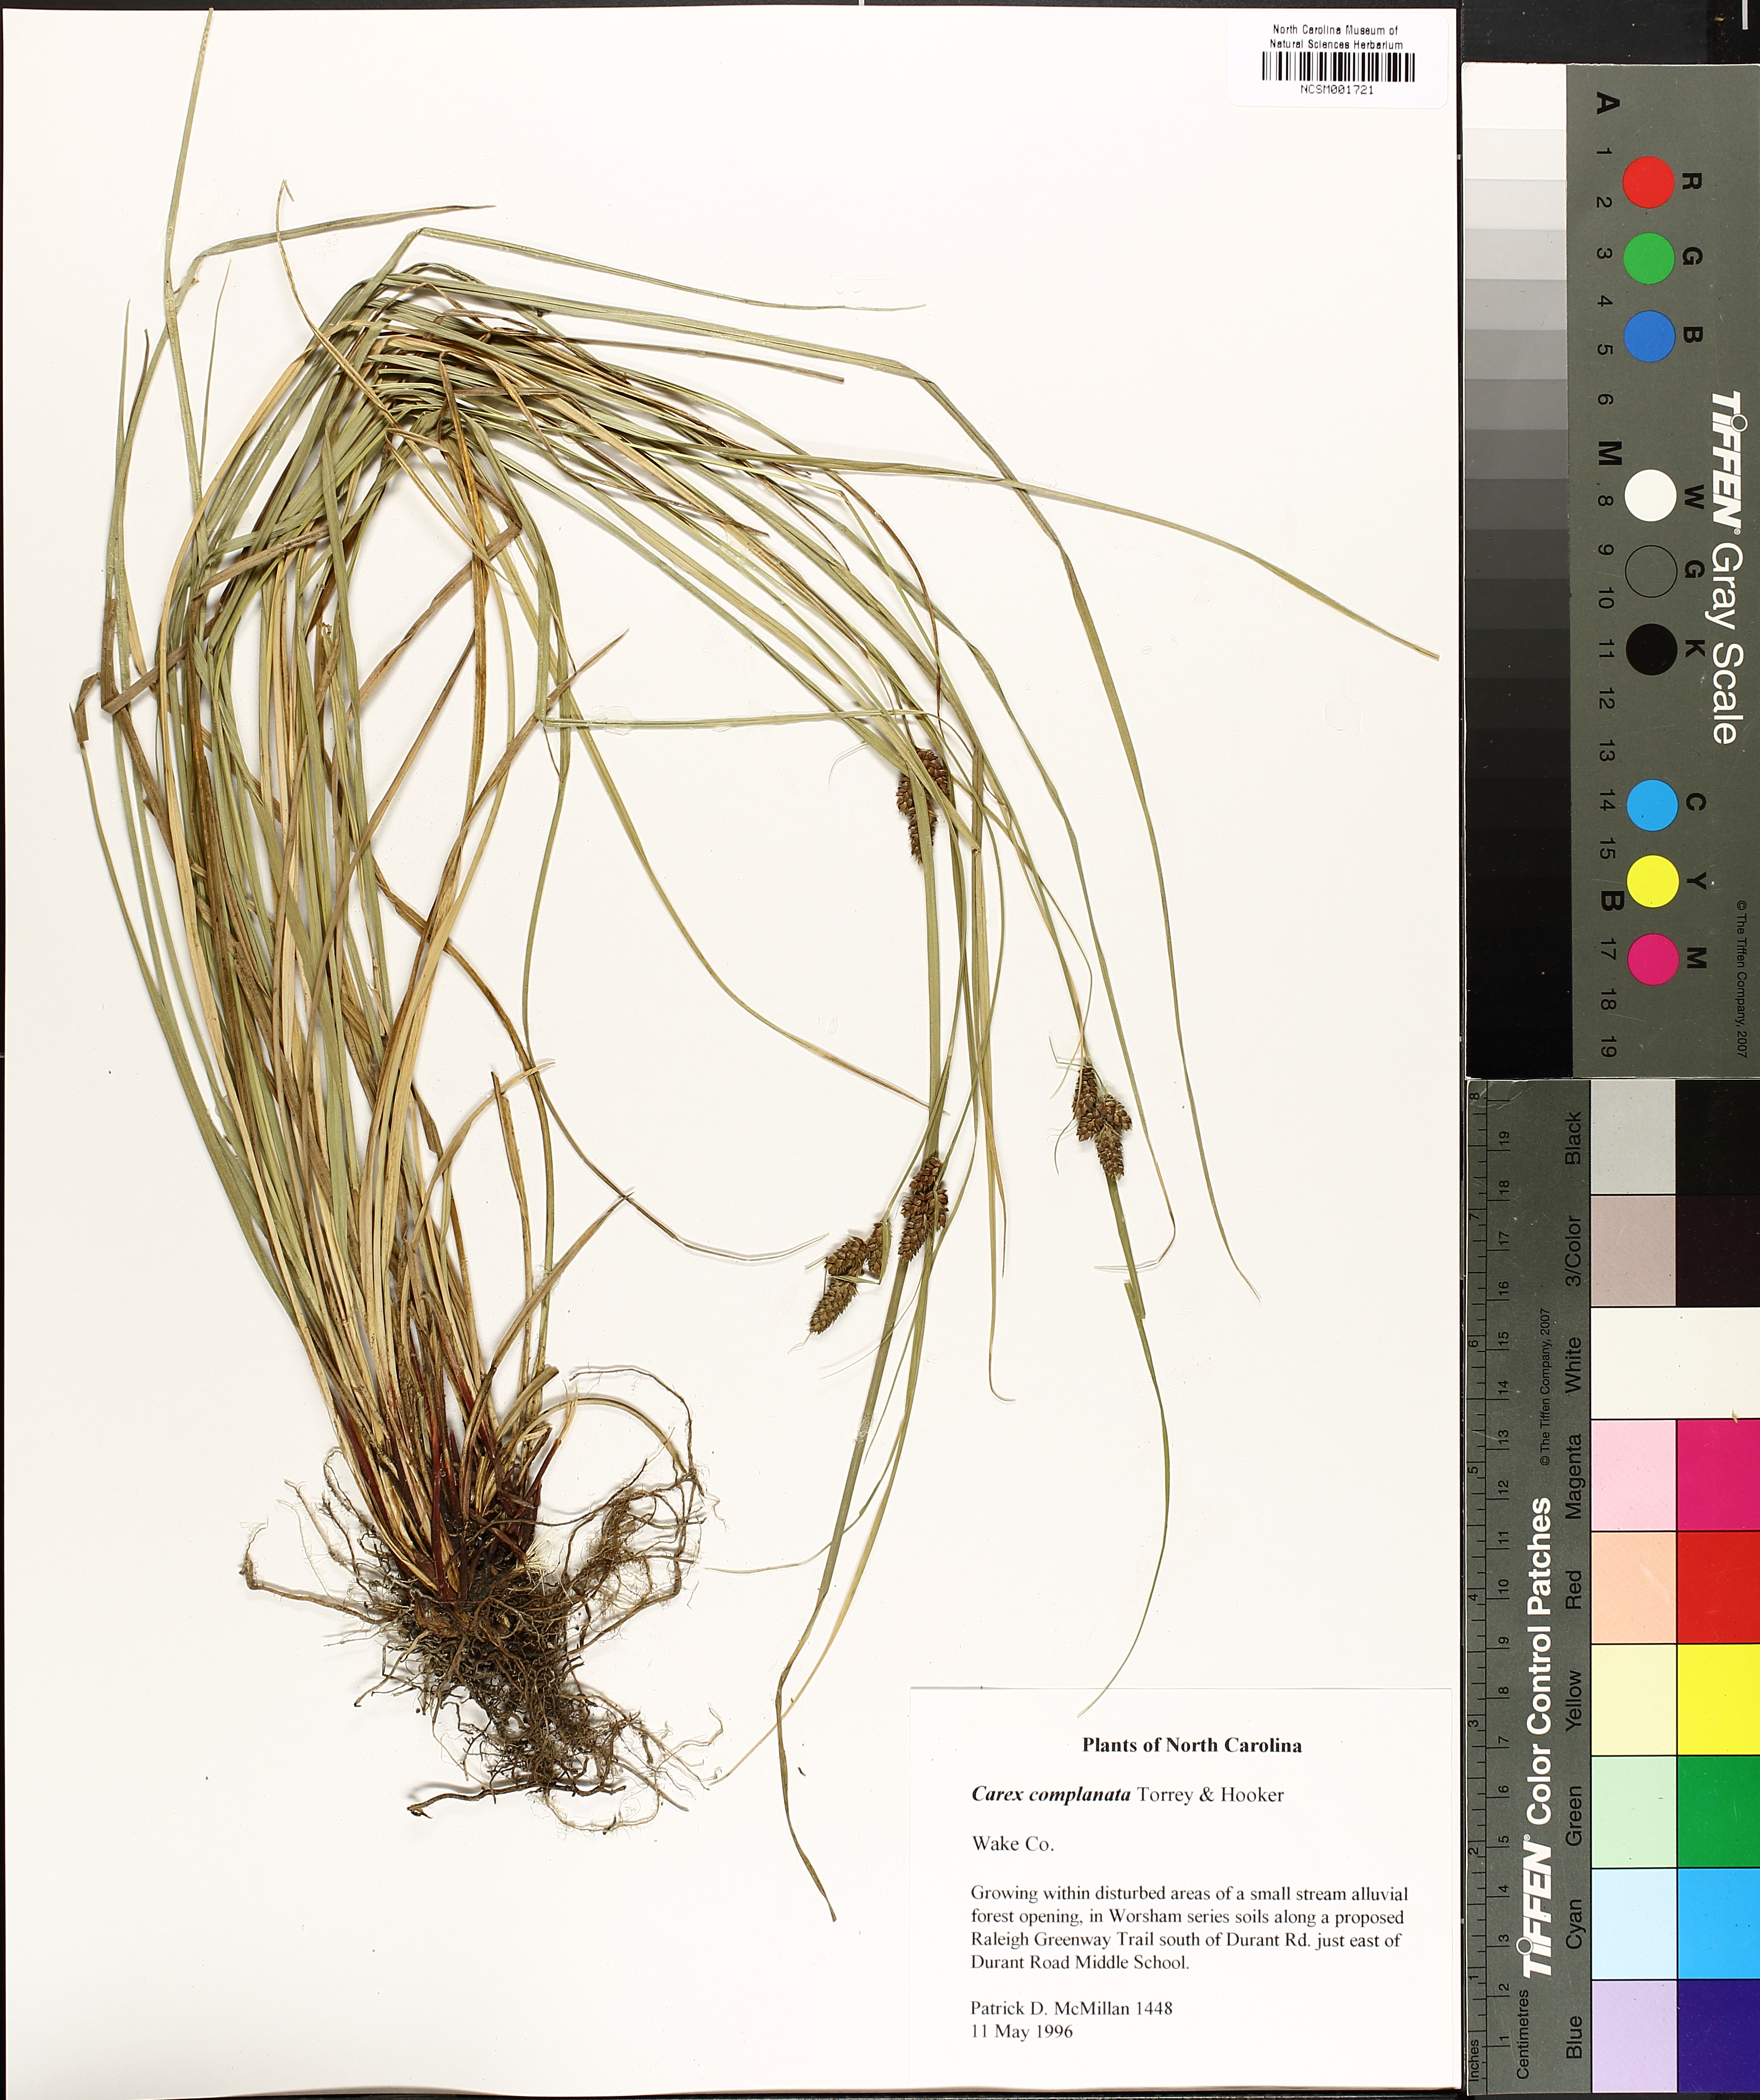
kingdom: Plantae
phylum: Tracheophyta
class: Liliopsida
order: Poales
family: Cyperaceae
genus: Carex
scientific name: Carex complanata
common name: Hirsute sedge
